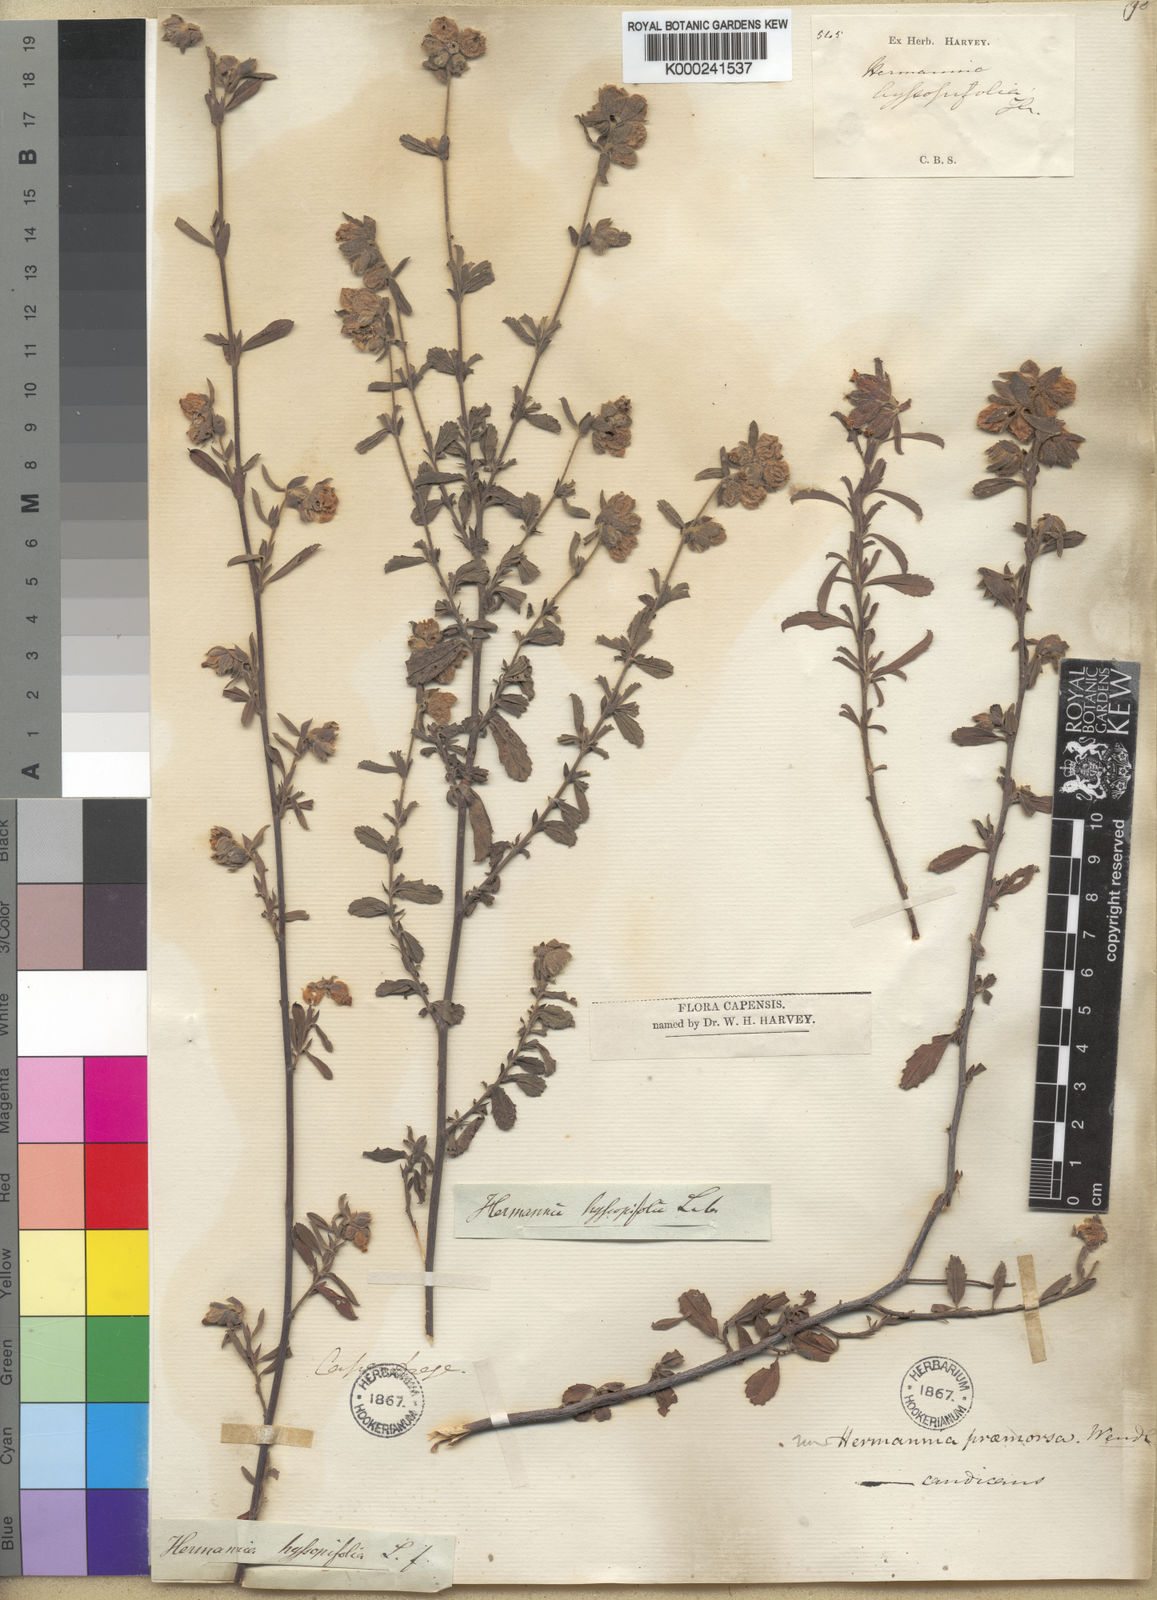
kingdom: Plantae
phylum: Tracheophyta
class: Magnoliopsida
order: Malvales
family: Malvaceae
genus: Hermannia
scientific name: Hermannia hyssopifolia
